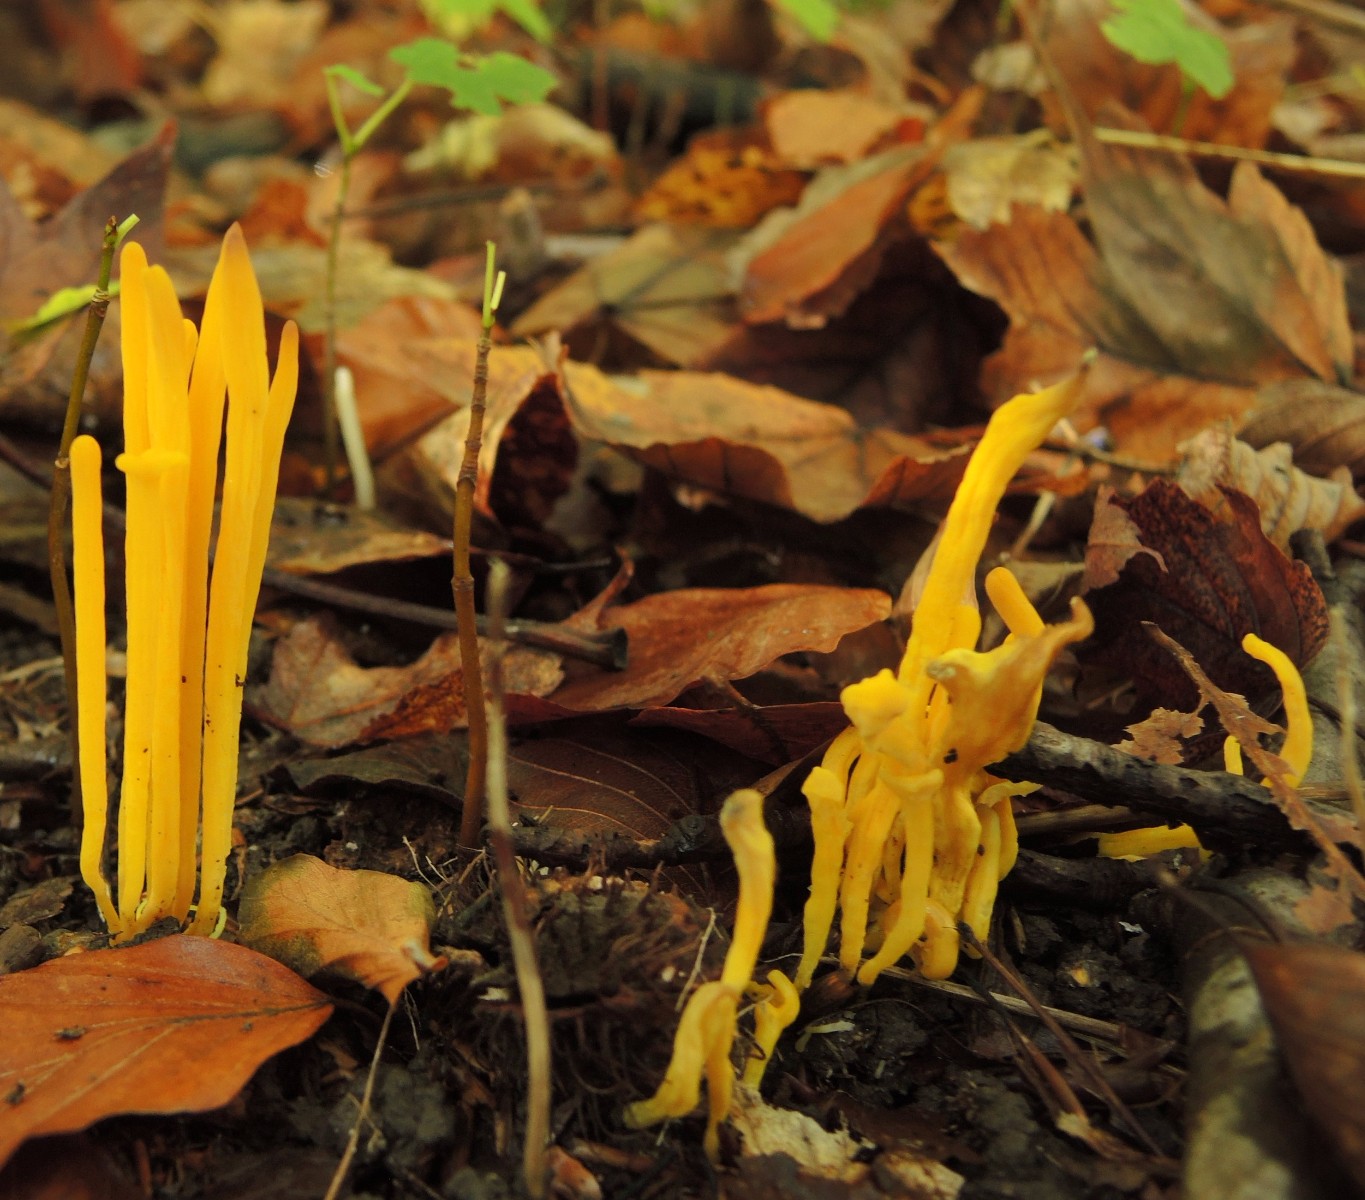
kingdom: Fungi
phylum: Basidiomycota
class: Agaricomycetes
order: Agaricales
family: Clavariaceae
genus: Clavulinopsis
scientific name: Clavulinopsis helvola
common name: orangegul køllesvamp
